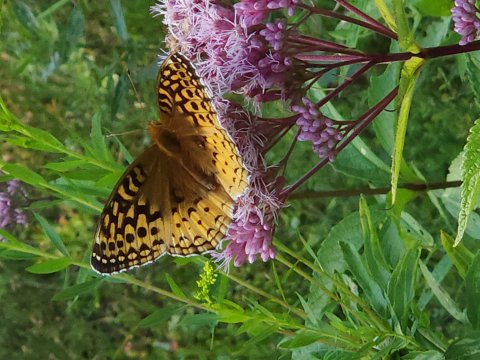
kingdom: Animalia
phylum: Arthropoda
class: Insecta
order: Lepidoptera
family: Nymphalidae
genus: Speyeria
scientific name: Speyeria cybele
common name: Great Spangled Fritillary
